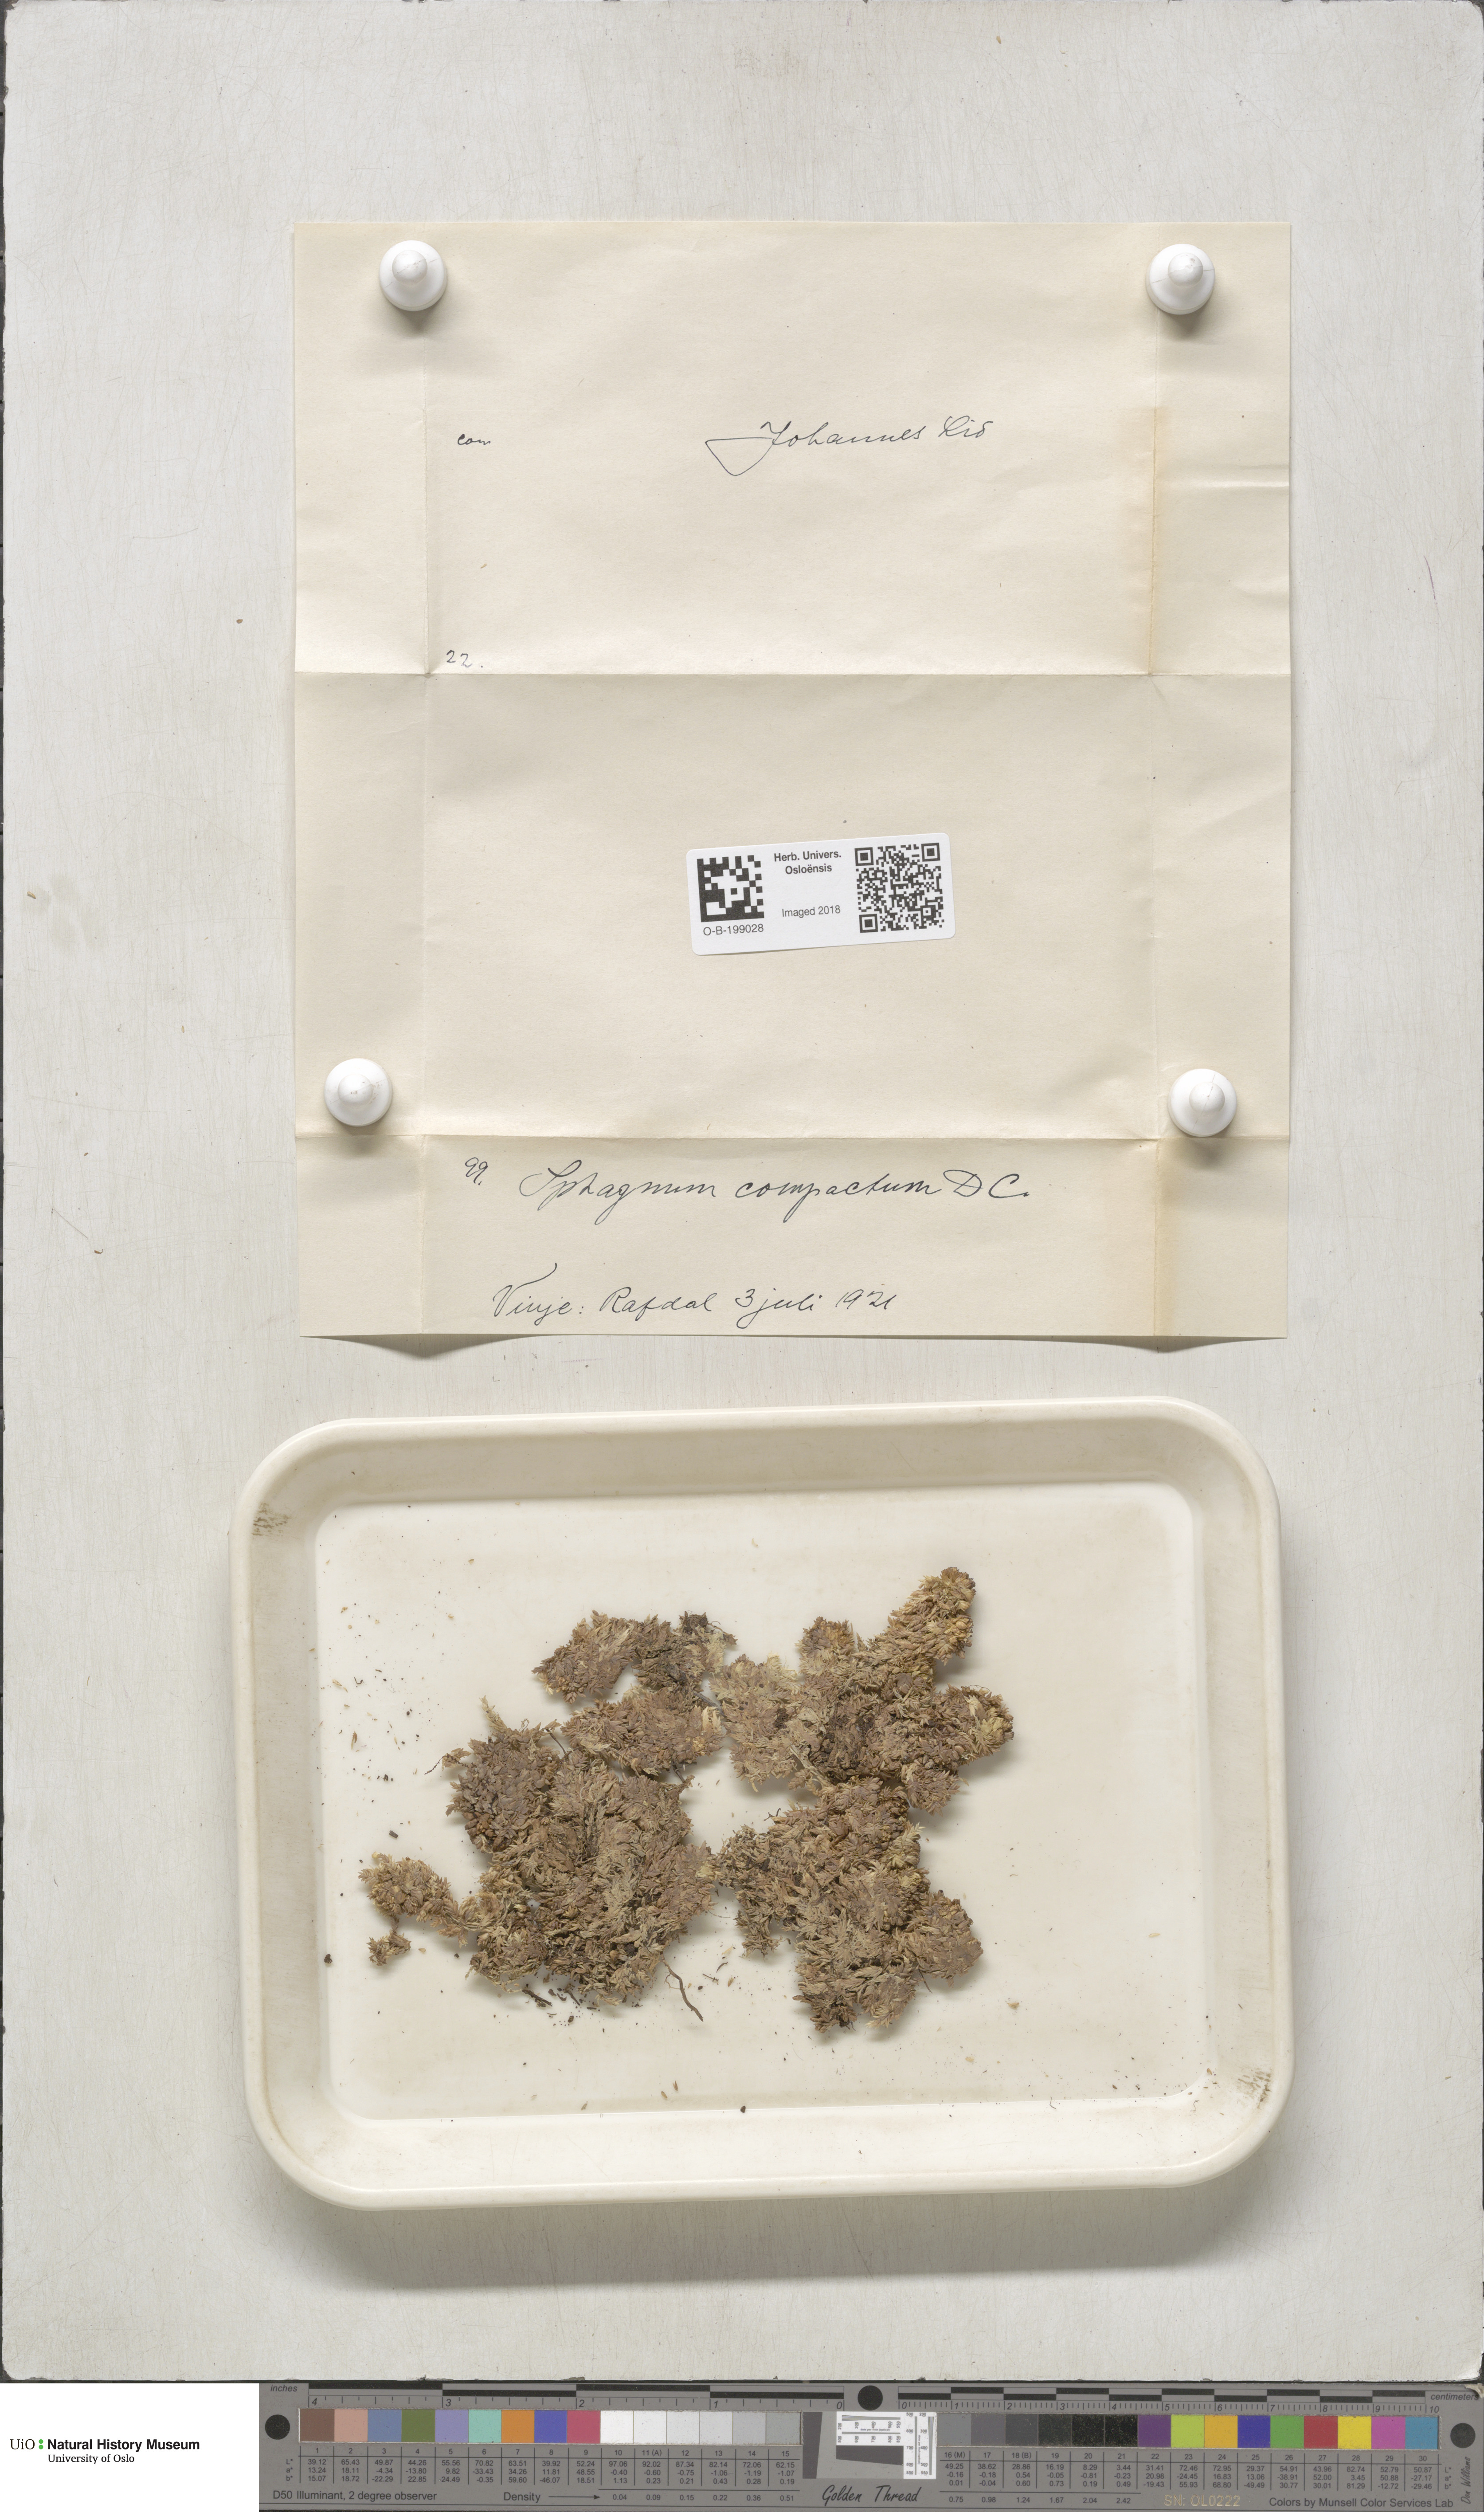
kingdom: Plantae
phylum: Bryophyta
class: Sphagnopsida
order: Sphagnales
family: Sphagnaceae
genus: Sphagnum
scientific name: Sphagnum compactum
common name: Compact peat moss
